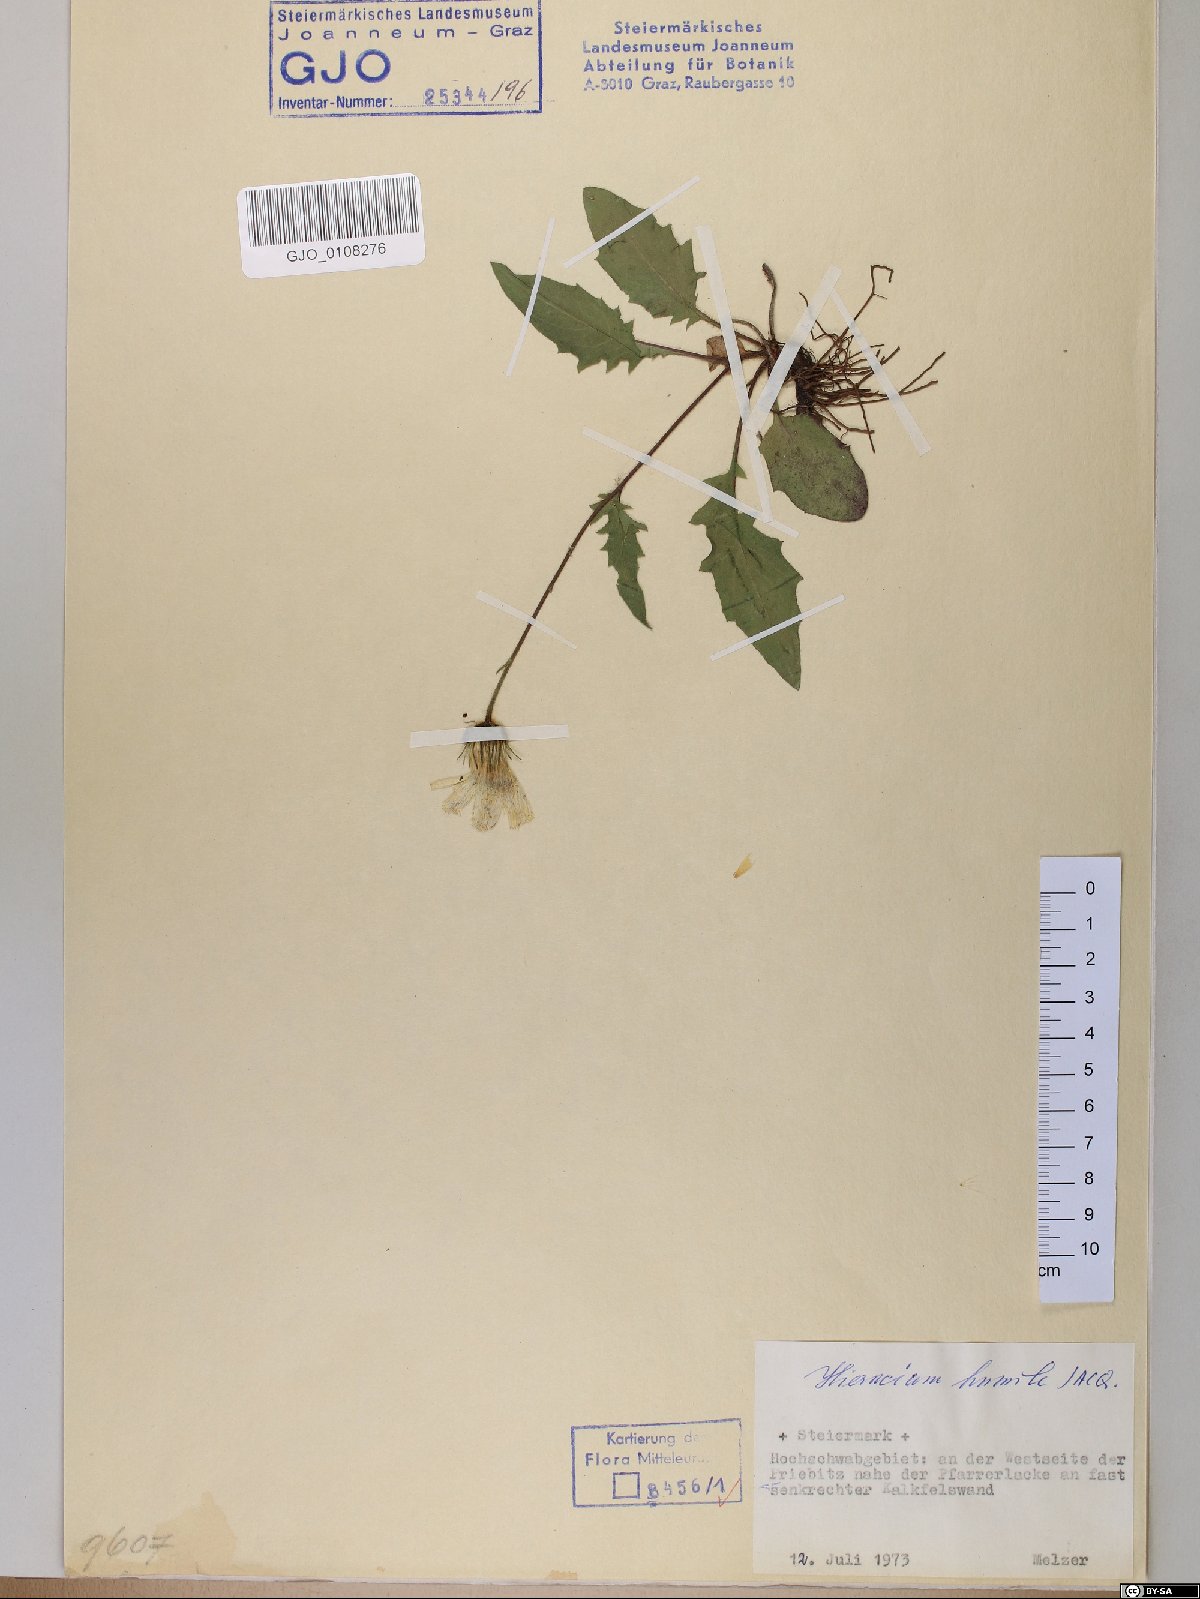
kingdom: Plantae
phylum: Tracheophyta
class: Magnoliopsida
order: Asterales
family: Asteraceae
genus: Hieracium
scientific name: Hieracium humile
